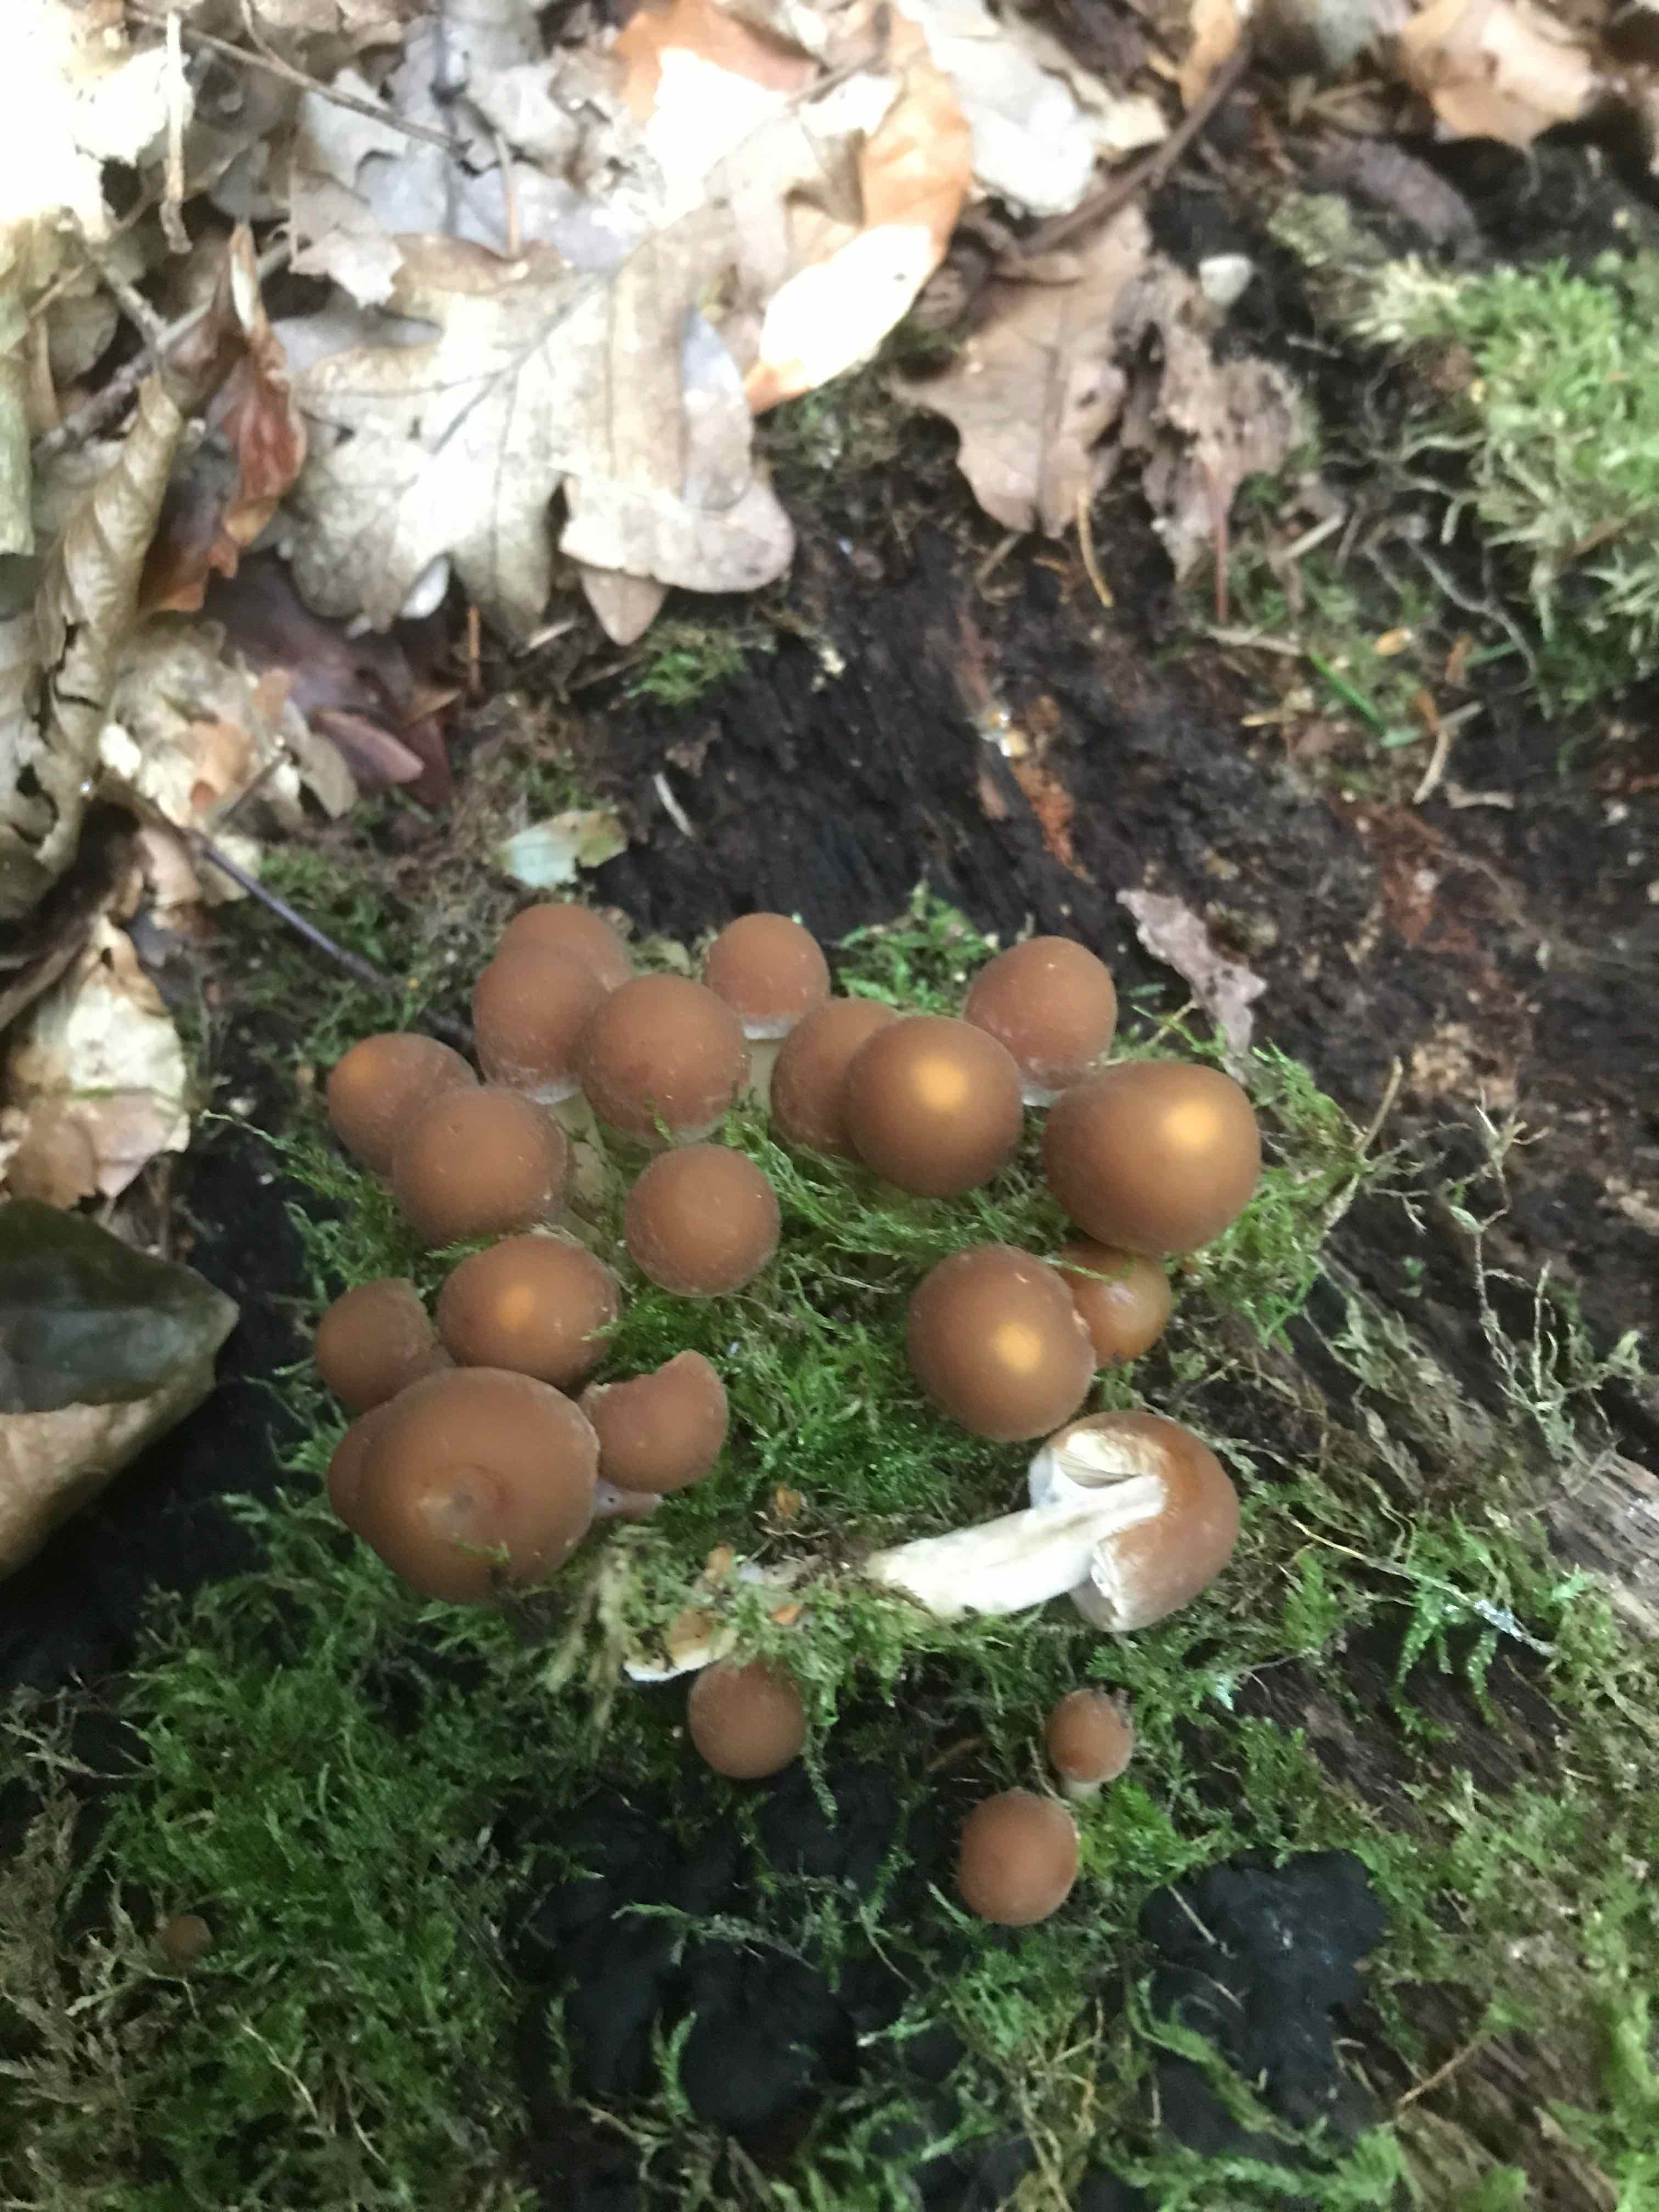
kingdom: Fungi
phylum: Basidiomycota
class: Agaricomycetes
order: Agaricales
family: Psathyrellaceae
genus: Psathyrella
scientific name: Psathyrella piluliformis
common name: lysstokket mørkhat
